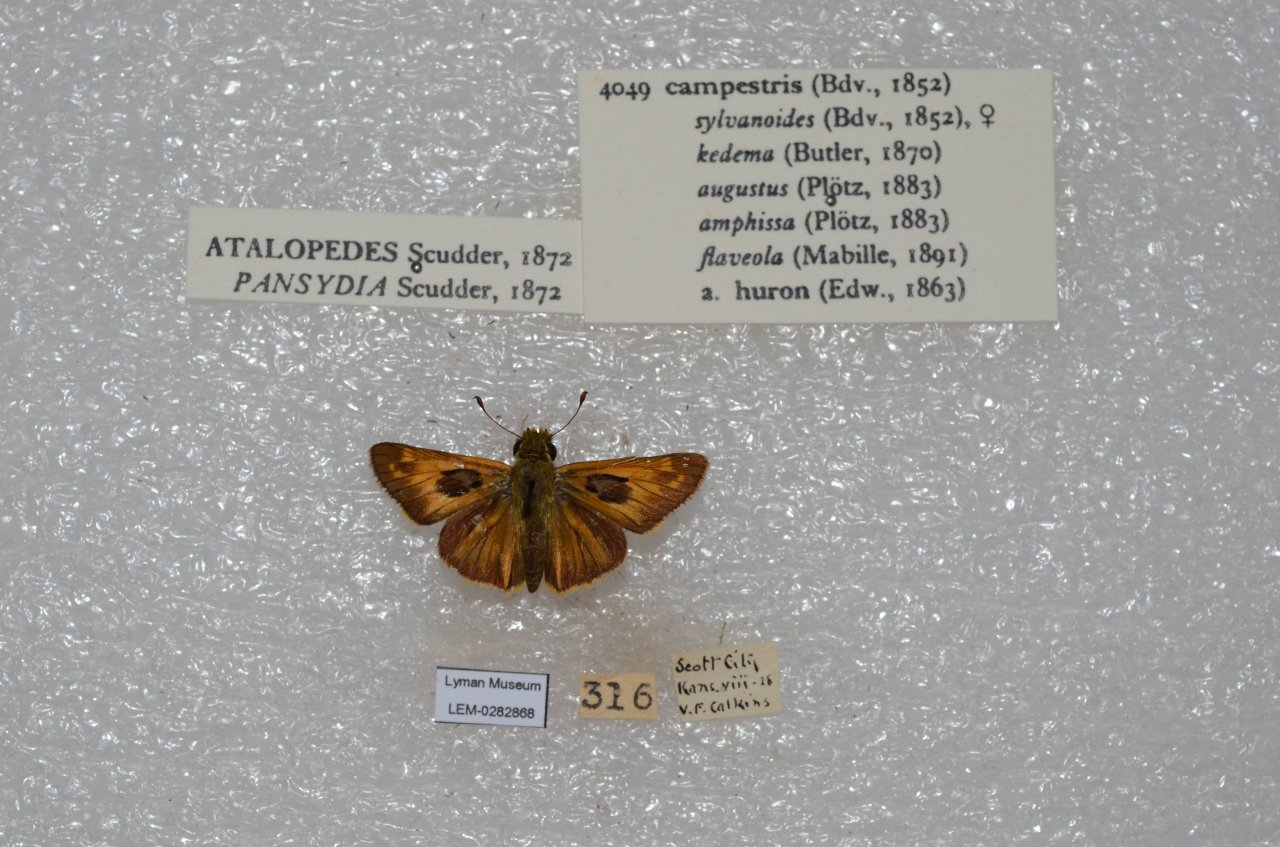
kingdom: Animalia
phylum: Arthropoda
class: Insecta
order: Lepidoptera
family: Hesperiidae
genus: Vernia
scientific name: Vernia verna
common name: Little Glassywing
